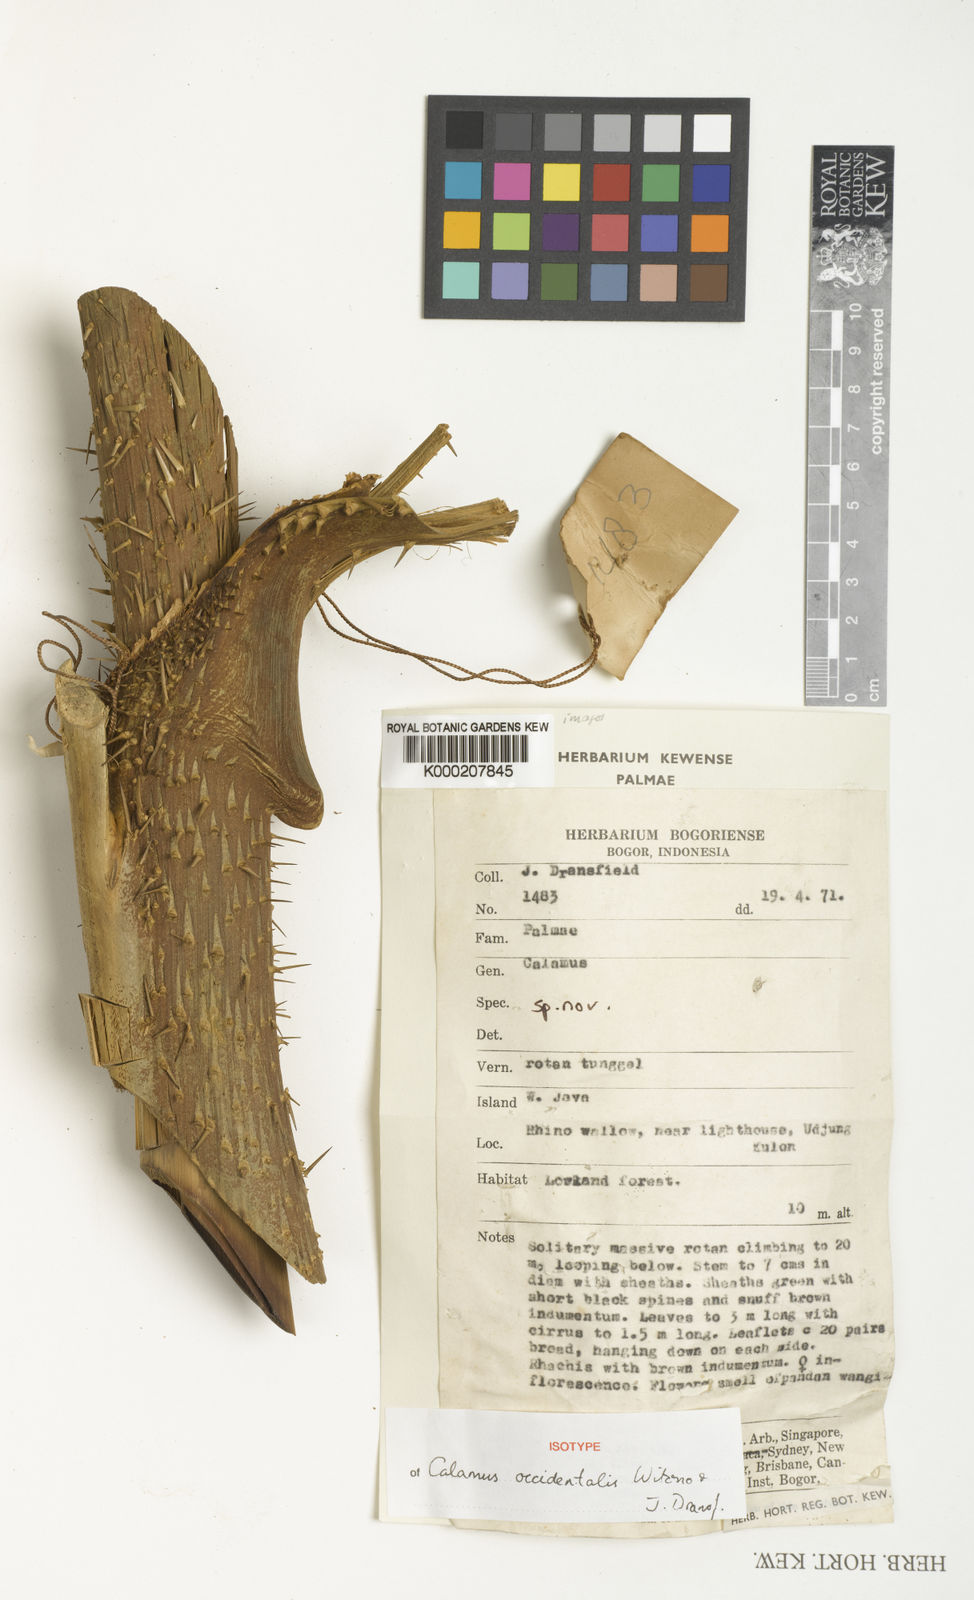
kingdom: Plantae
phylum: Tracheophyta
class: Liliopsida
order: Arecales
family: Arecaceae
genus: Calamus
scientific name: Calamus occidentalis
